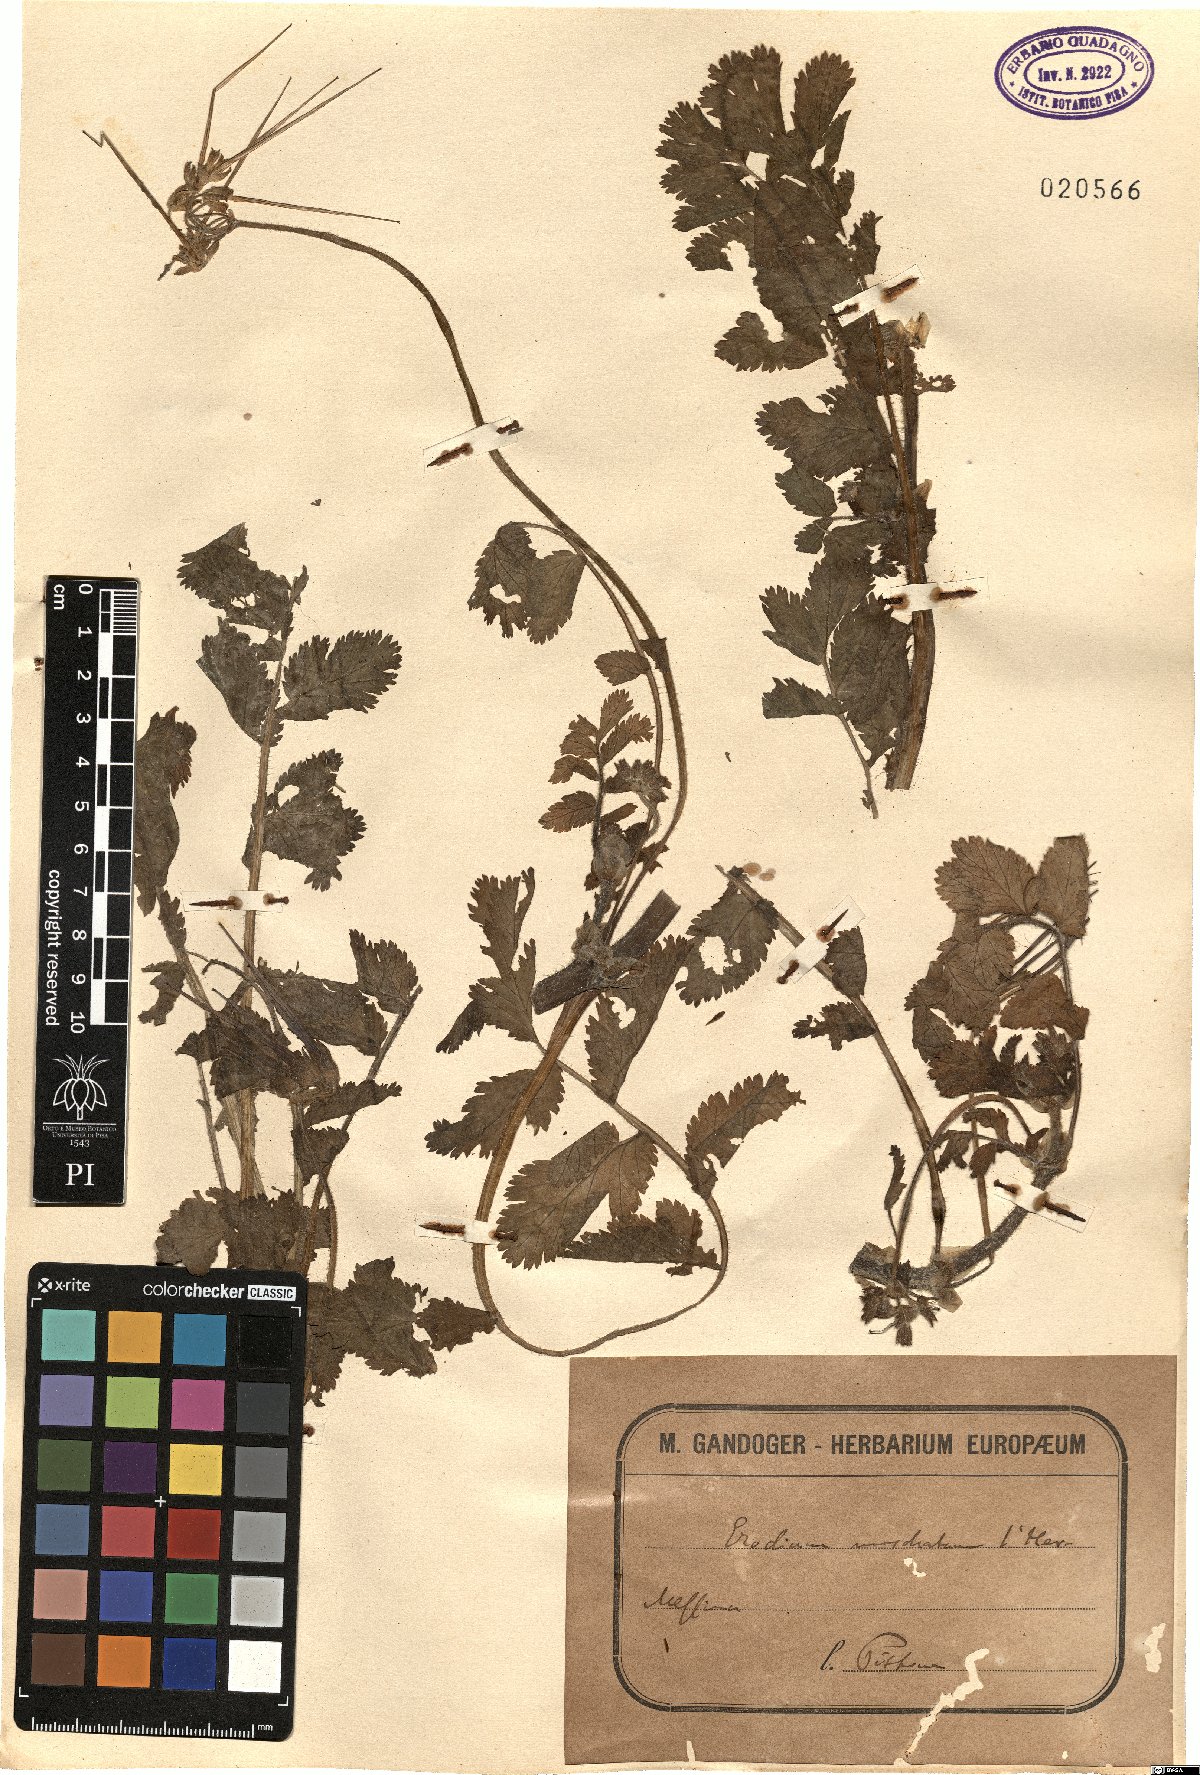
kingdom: Plantae
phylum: Tracheophyta
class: Magnoliopsida
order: Geraniales
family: Geraniaceae
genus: Erodium
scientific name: Erodium moschatum
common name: Musk stork's-bill
